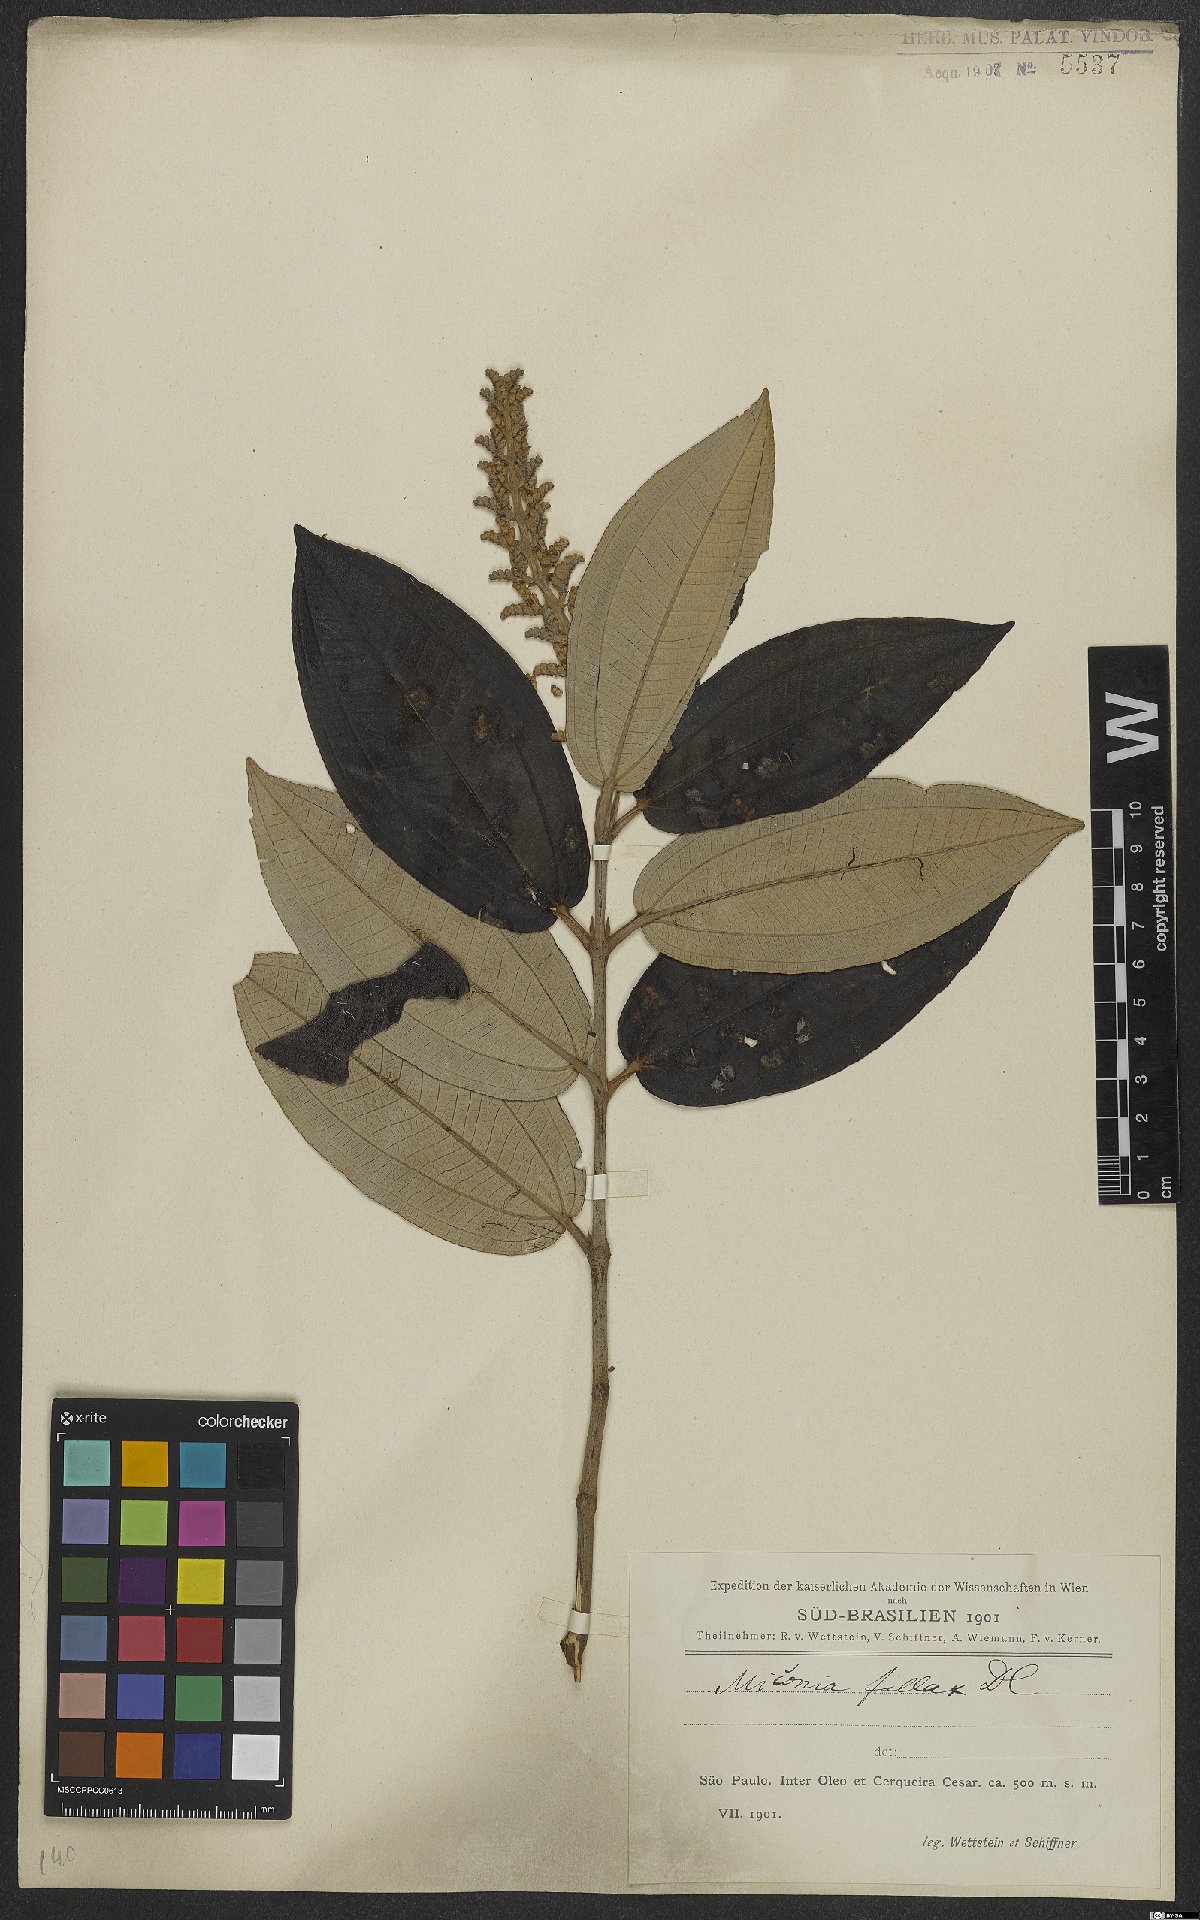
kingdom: Plantae
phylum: Tracheophyta
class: Magnoliopsida
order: Myrtales
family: Melastomataceae
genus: Miconia
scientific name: Miconia fallax
